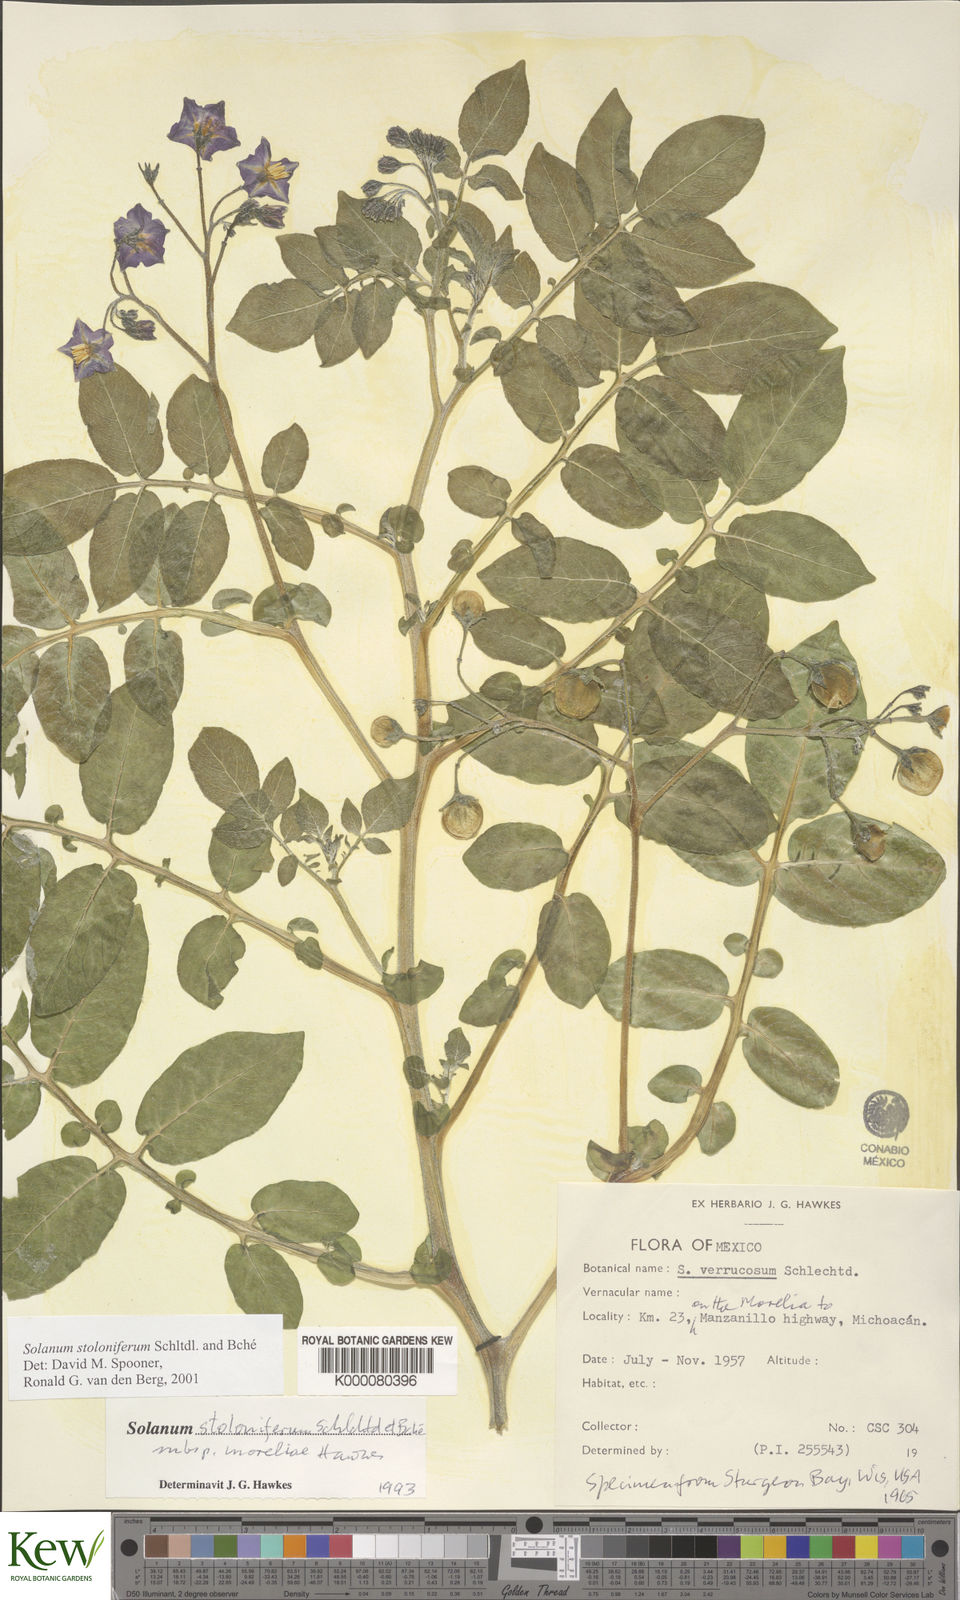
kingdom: Plantae
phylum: Tracheophyta
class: Magnoliopsida
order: Solanales
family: Solanaceae
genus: Solanum
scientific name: Solanum stoloniferum
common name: Fendler's nighshade
